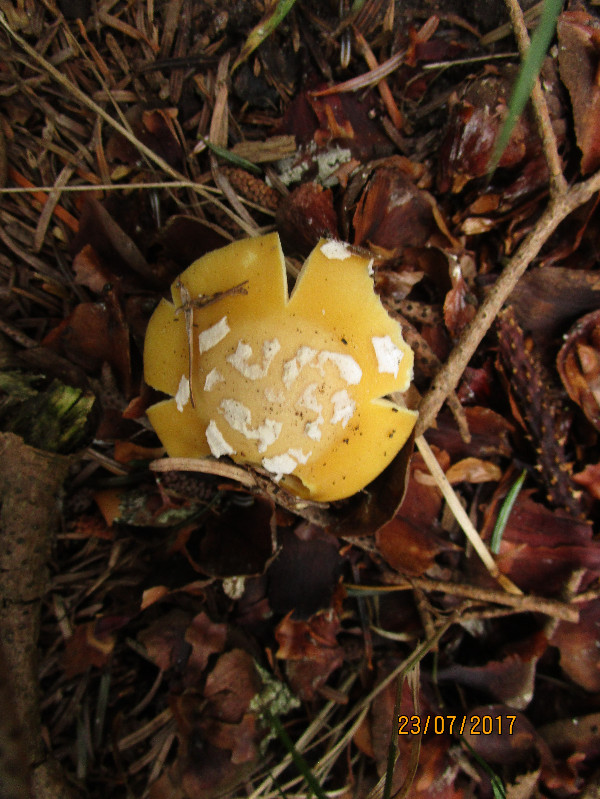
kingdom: Fungi
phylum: Basidiomycota
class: Agaricomycetes
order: Agaricales
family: Amanitaceae
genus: Amanita
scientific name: Amanita gemmata
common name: okkergul fluesvamp
